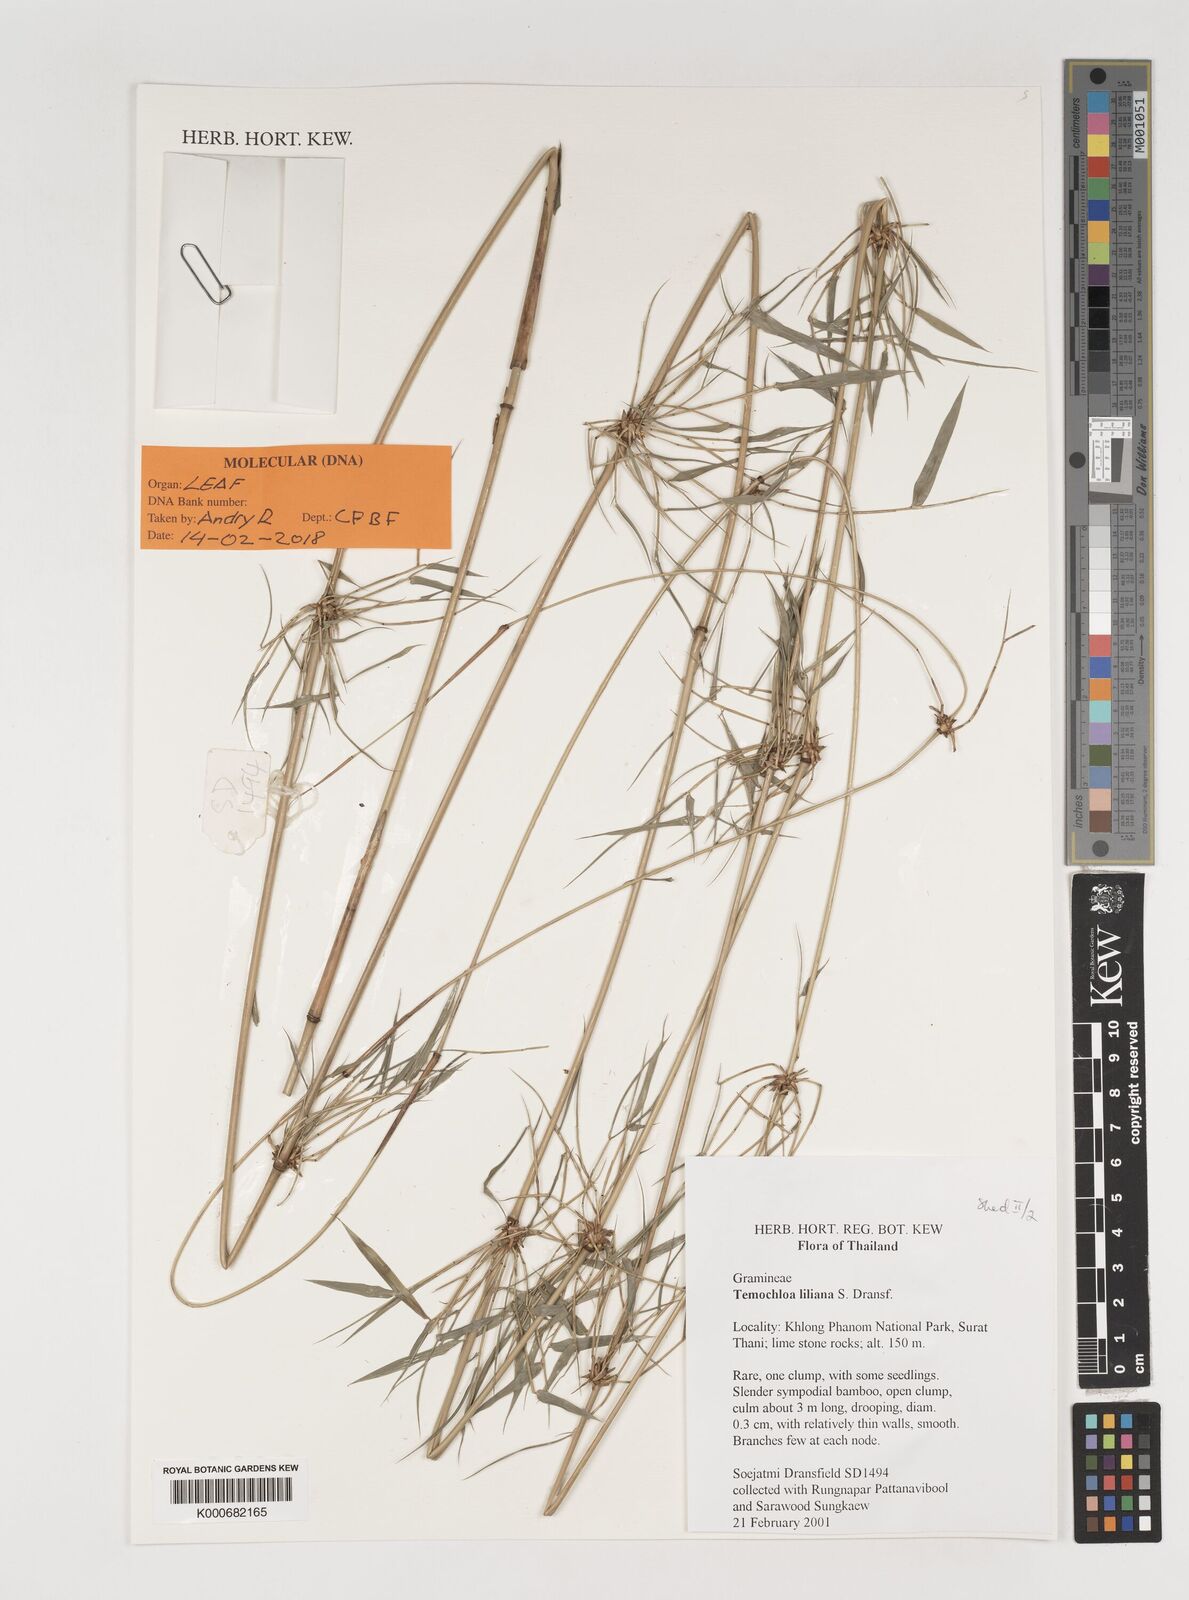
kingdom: Plantae
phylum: Tracheophyta
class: Liliopsida
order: Poales
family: Poaceae
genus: Temochloa
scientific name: Temochloa liliana
